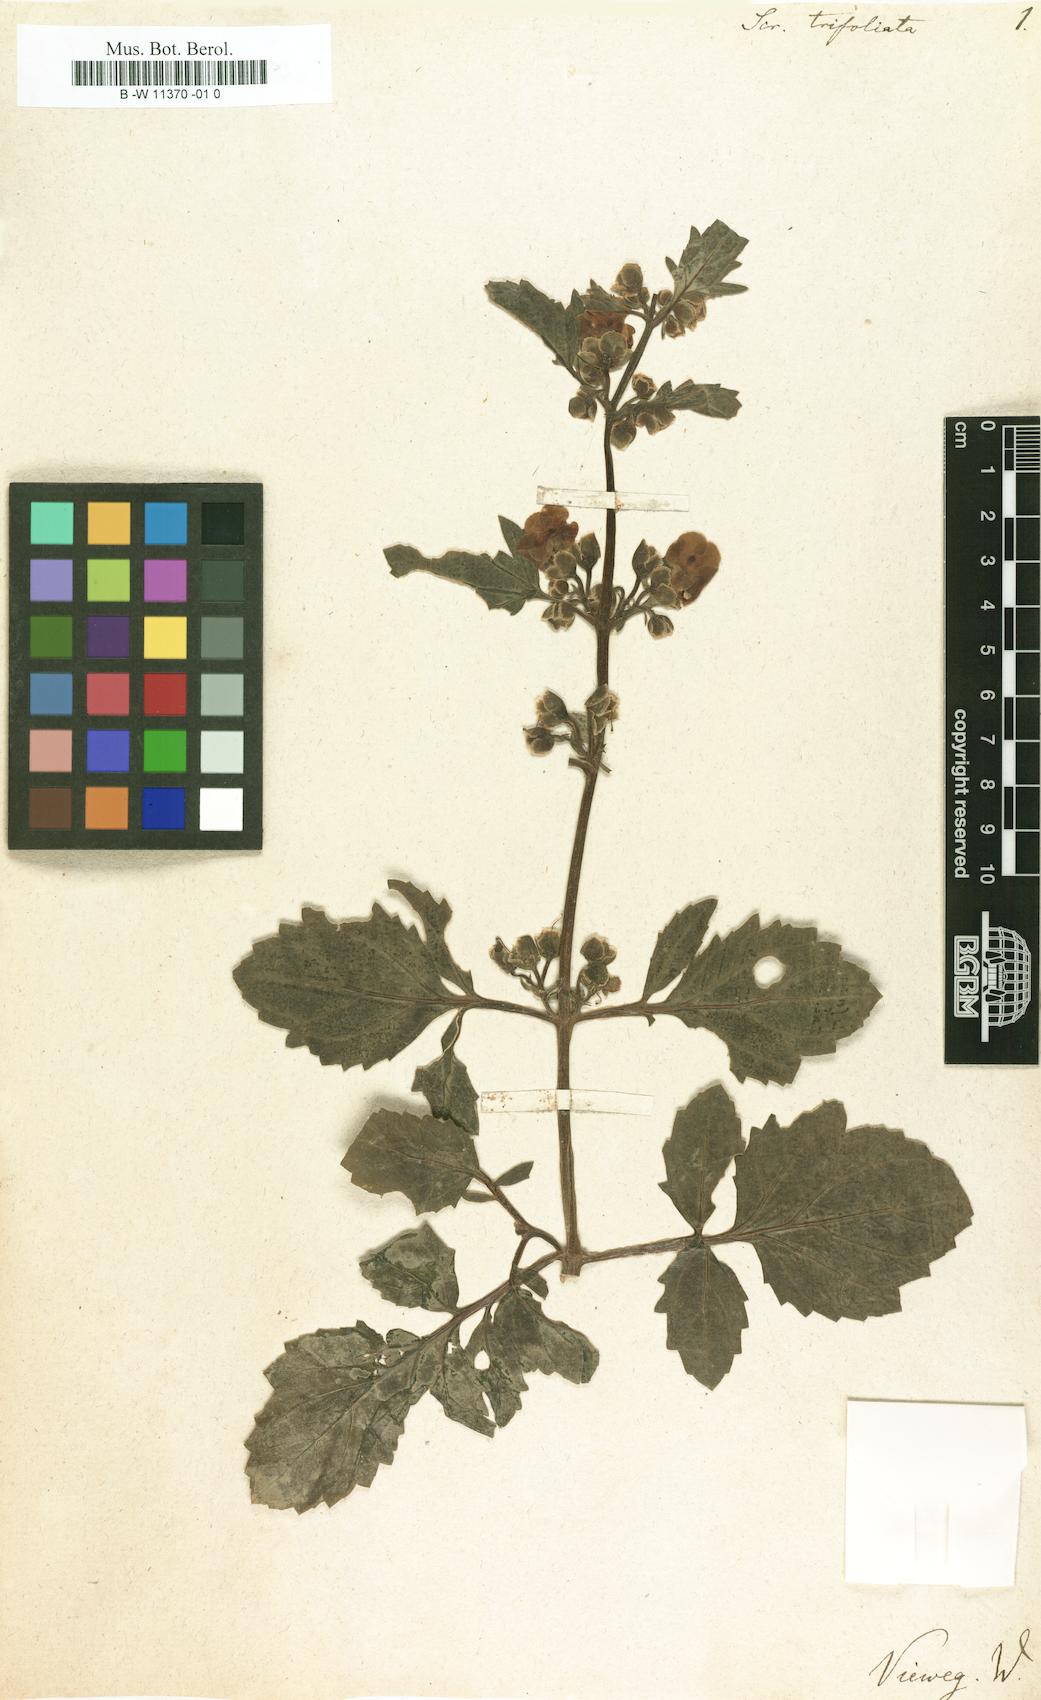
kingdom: Plantae
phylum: Tracheophyta
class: Magnoliopsida
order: Lamiales
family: Scrophulariaceae
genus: Scrophularia
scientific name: Scrophularia trifoliata
